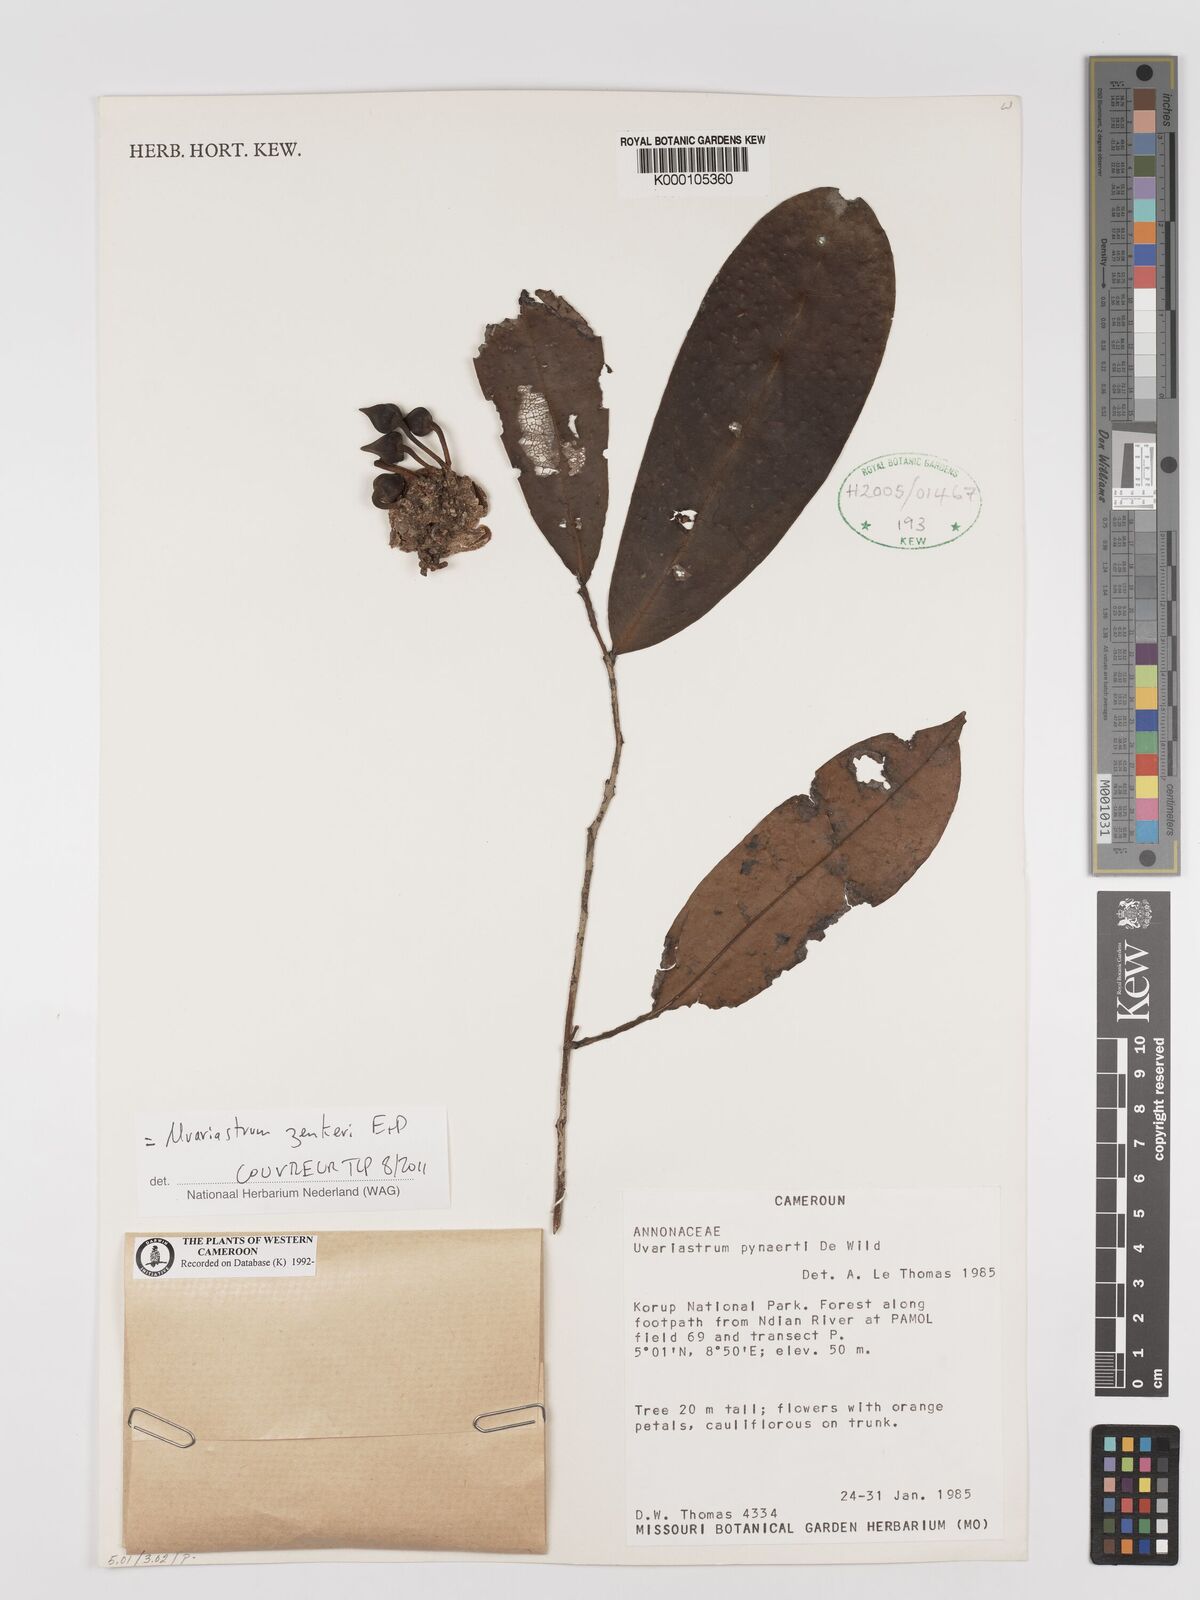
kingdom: Plantae
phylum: Tracheophyta
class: Magnoliopsida
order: Magnoliales
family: Annonaceae
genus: Uvariastrum
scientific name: Uvariastrum pynaertii
